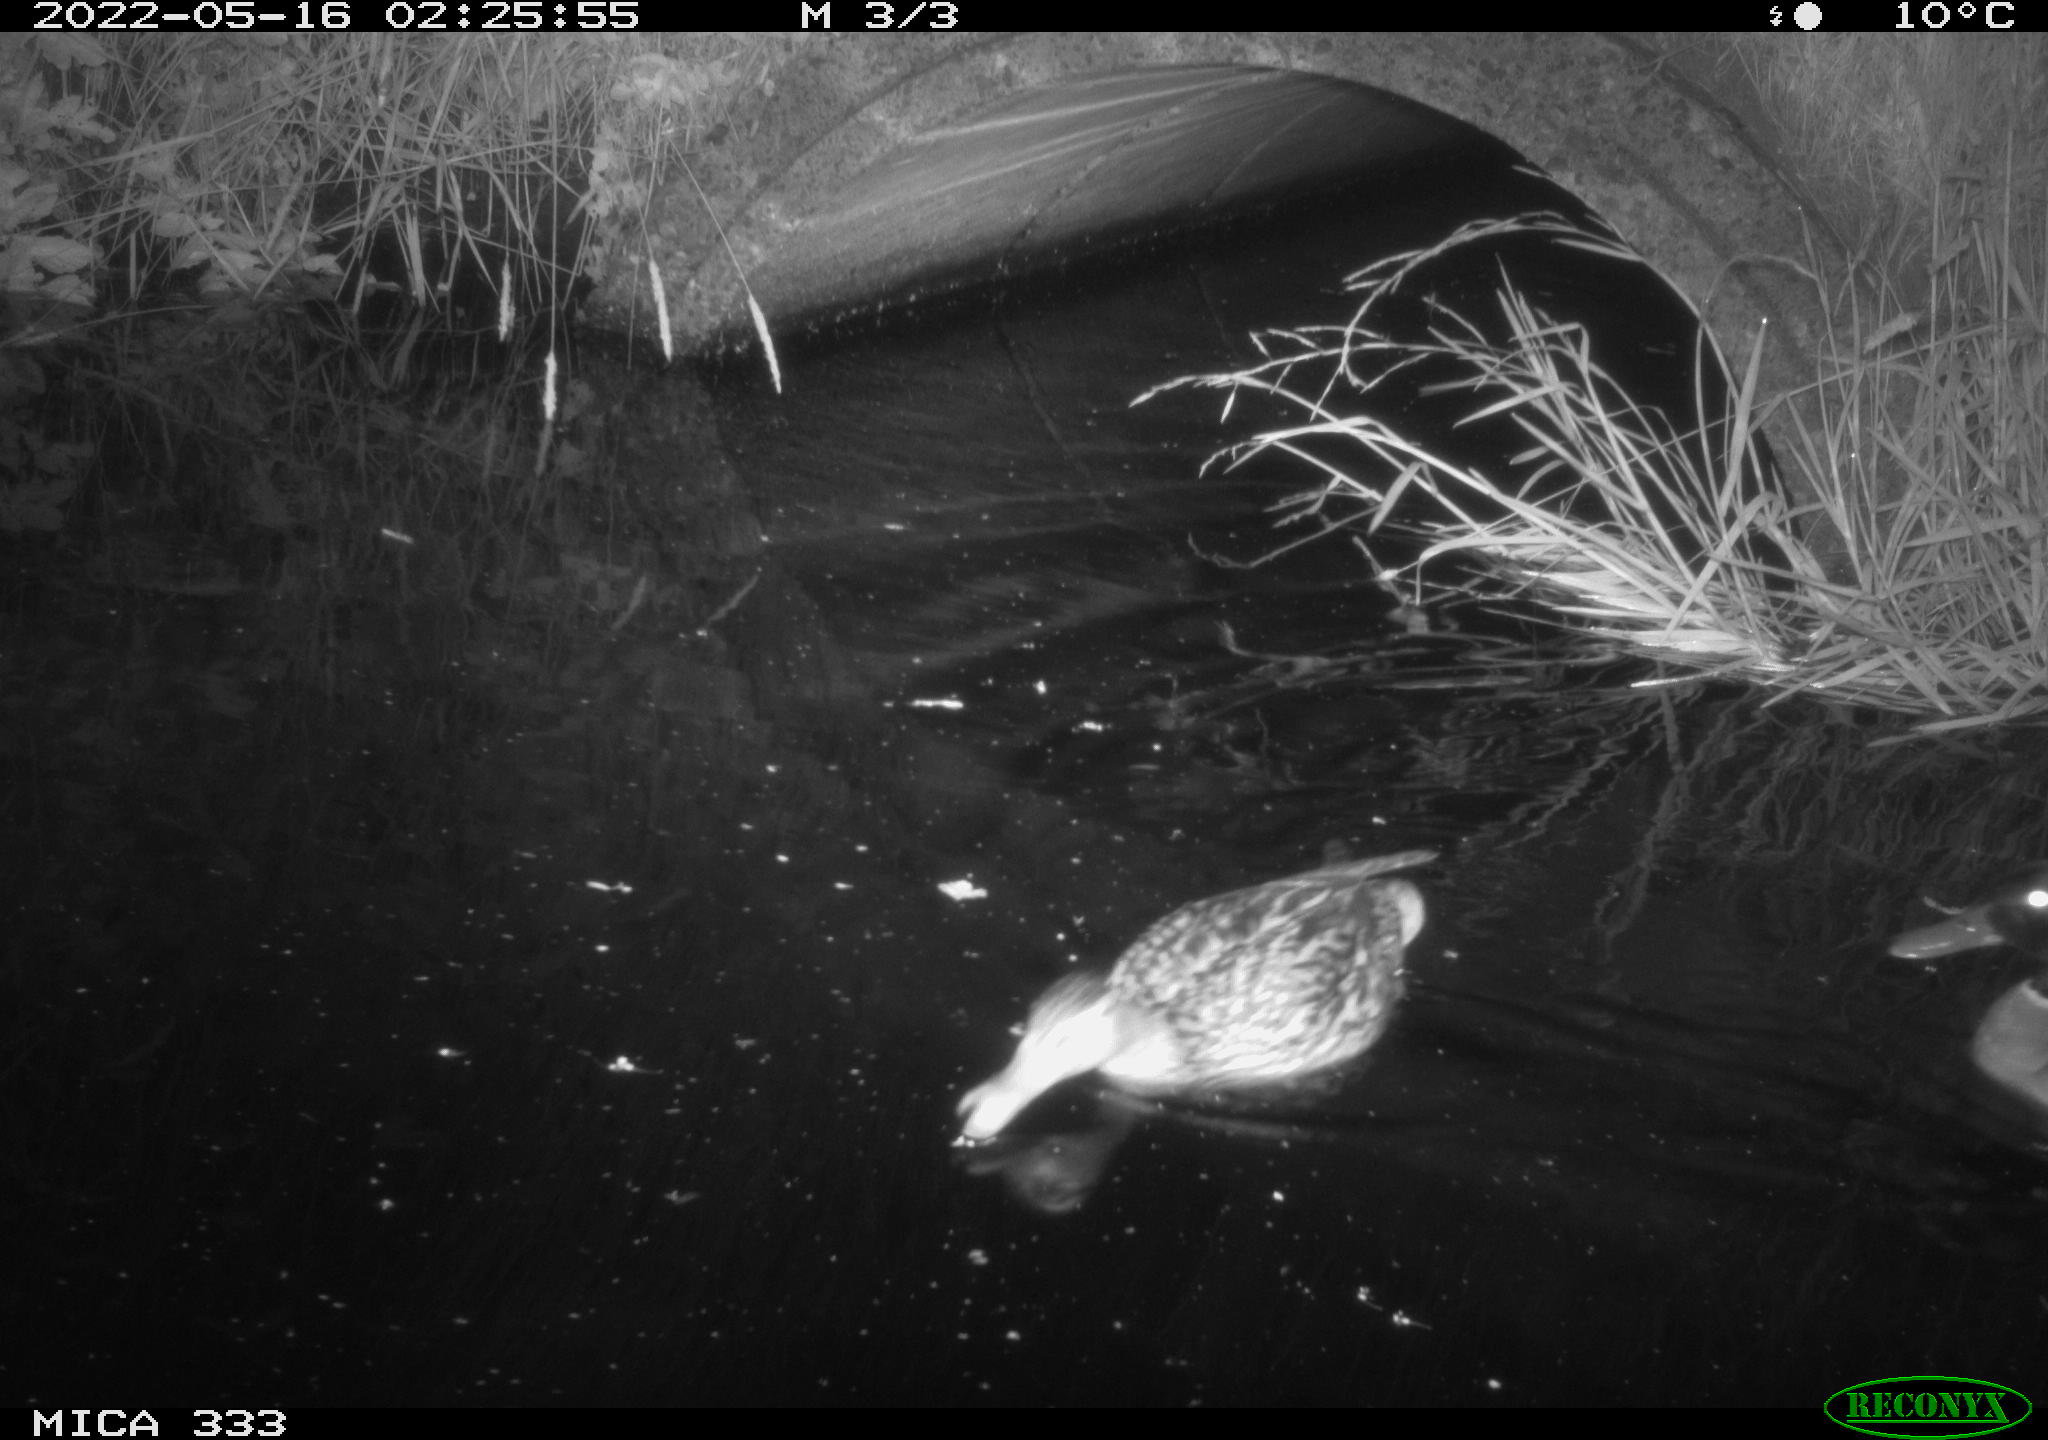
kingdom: Animalia
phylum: Chordata
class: Aves
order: Anseriformes
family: Anatidae
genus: Anas
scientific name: Anas platyrhynchos
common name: Mallard
